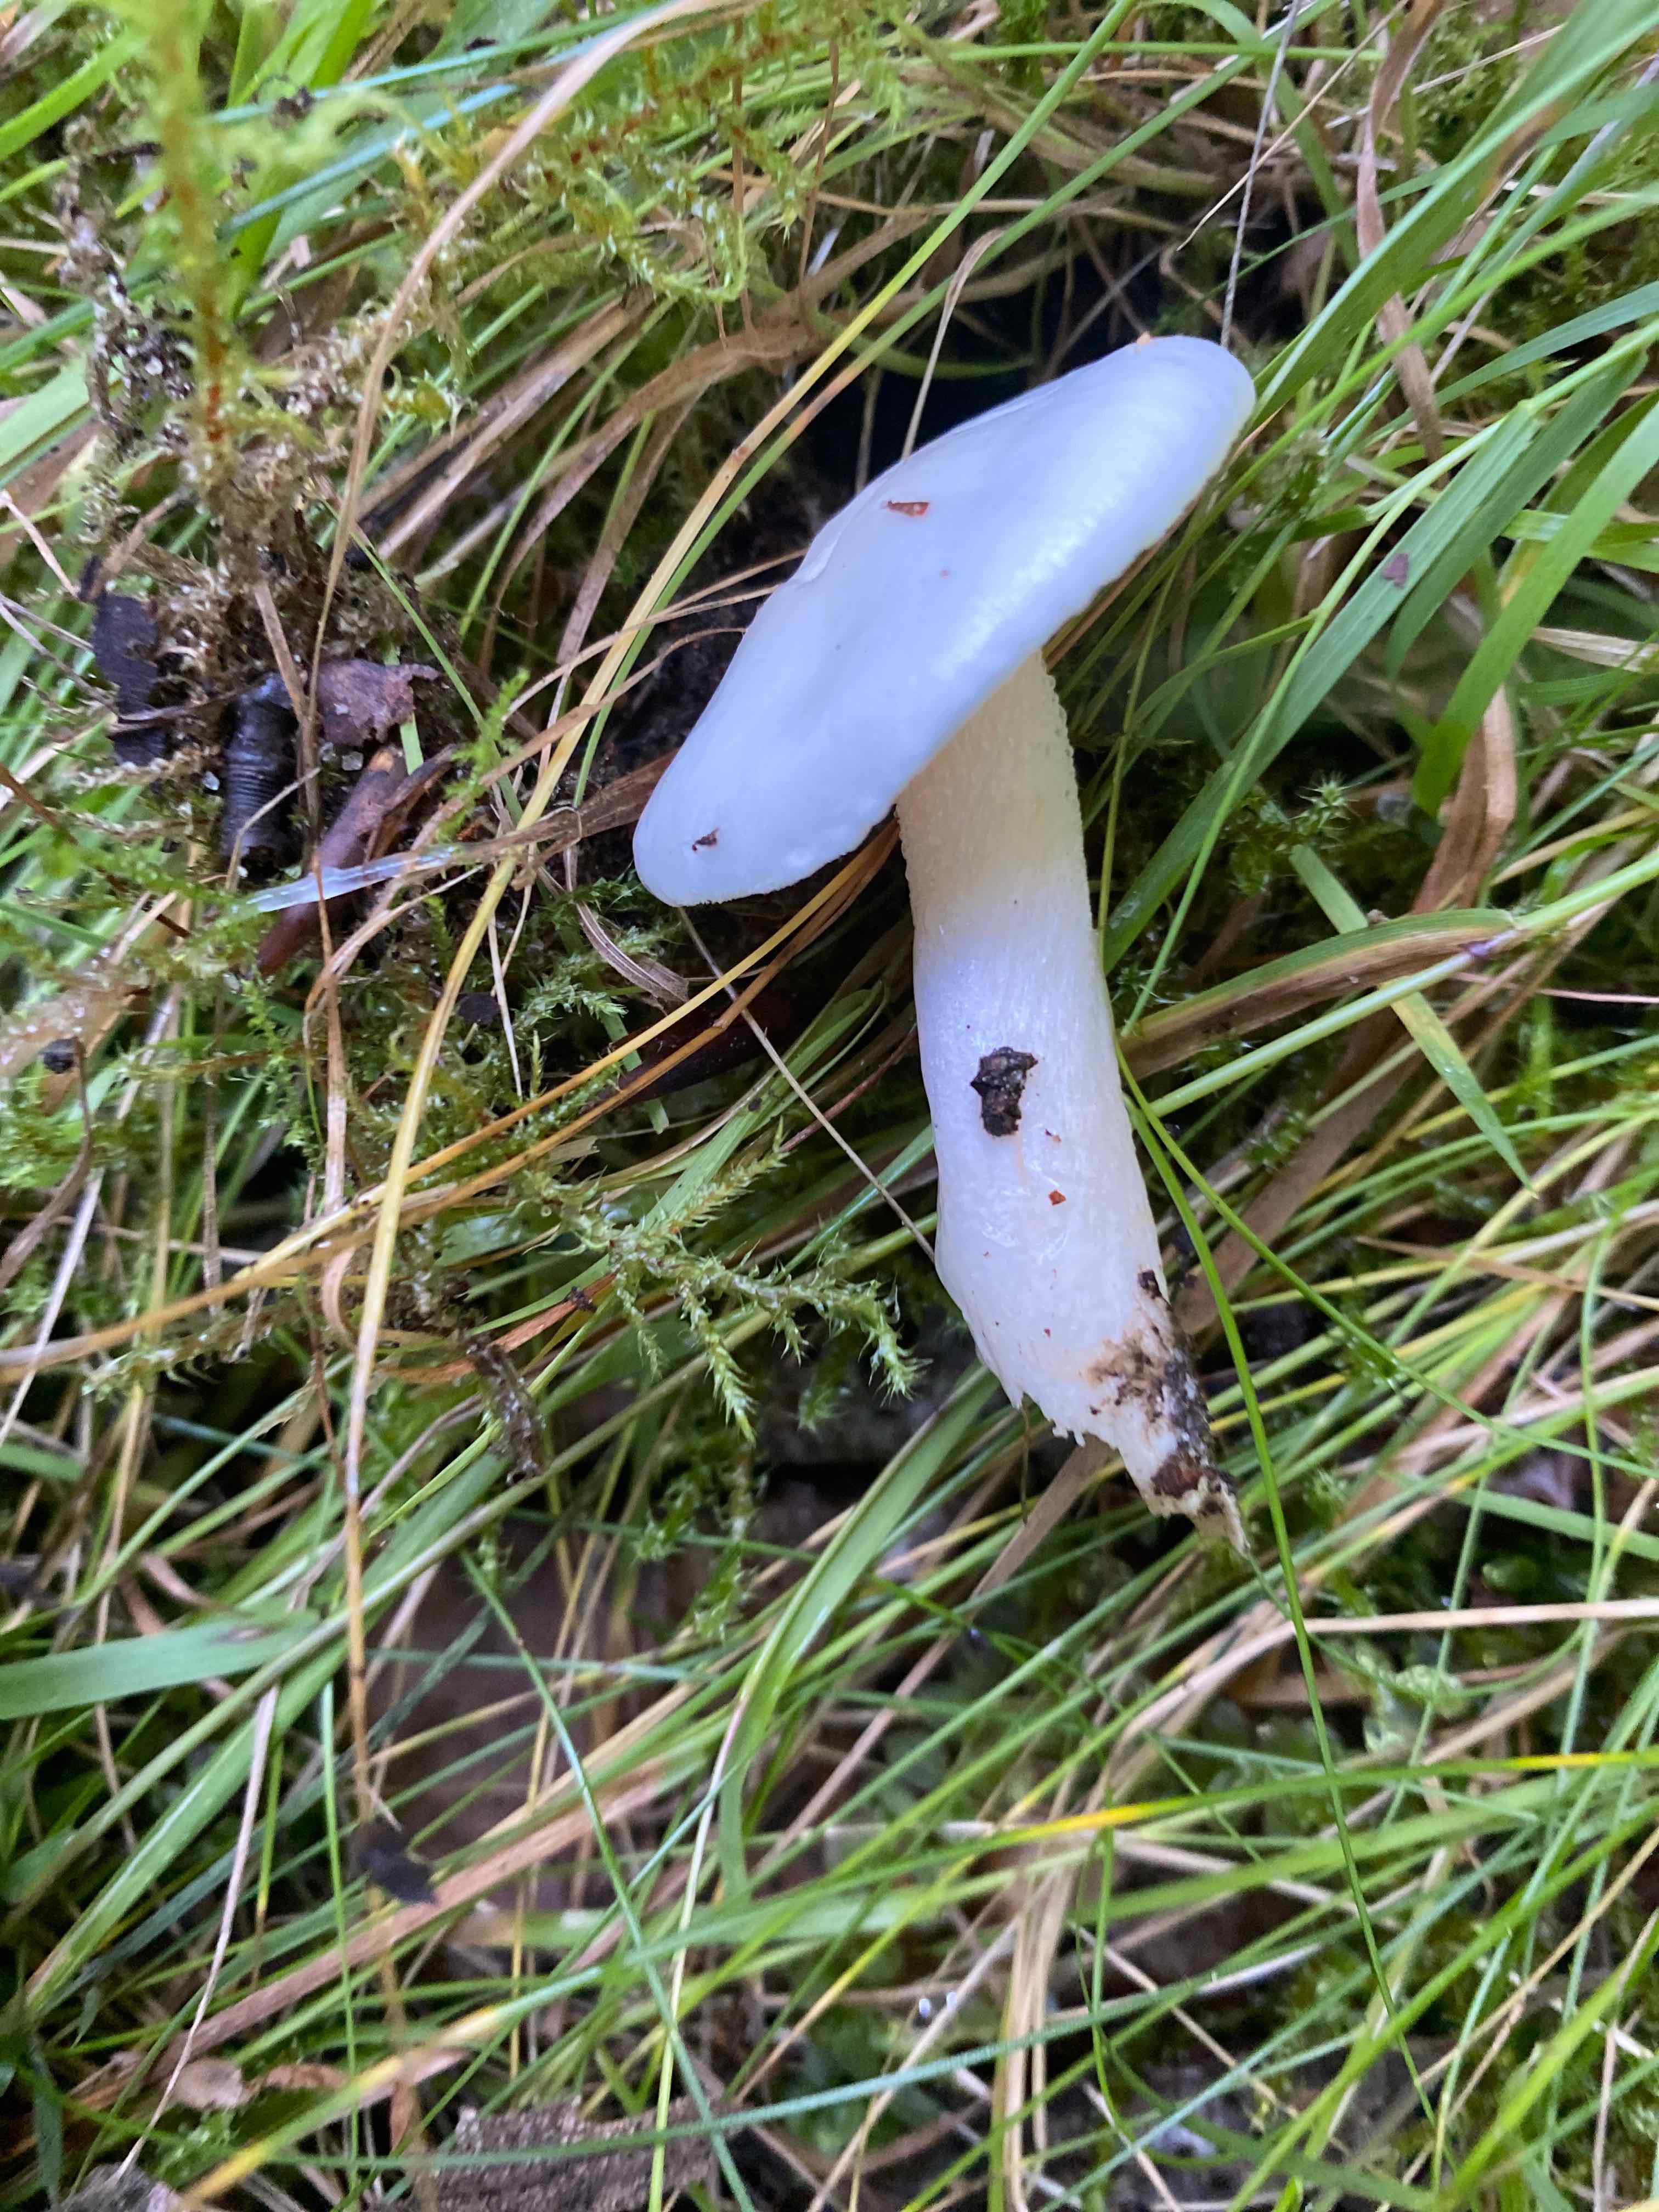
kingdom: Fungi
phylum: Basidiomycota
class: Agaricomycetes
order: Agaricales
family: Hygrophoraceae
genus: Hygrophorus
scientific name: Hygrophorus eburneus
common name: elfenbens-sneglehat
